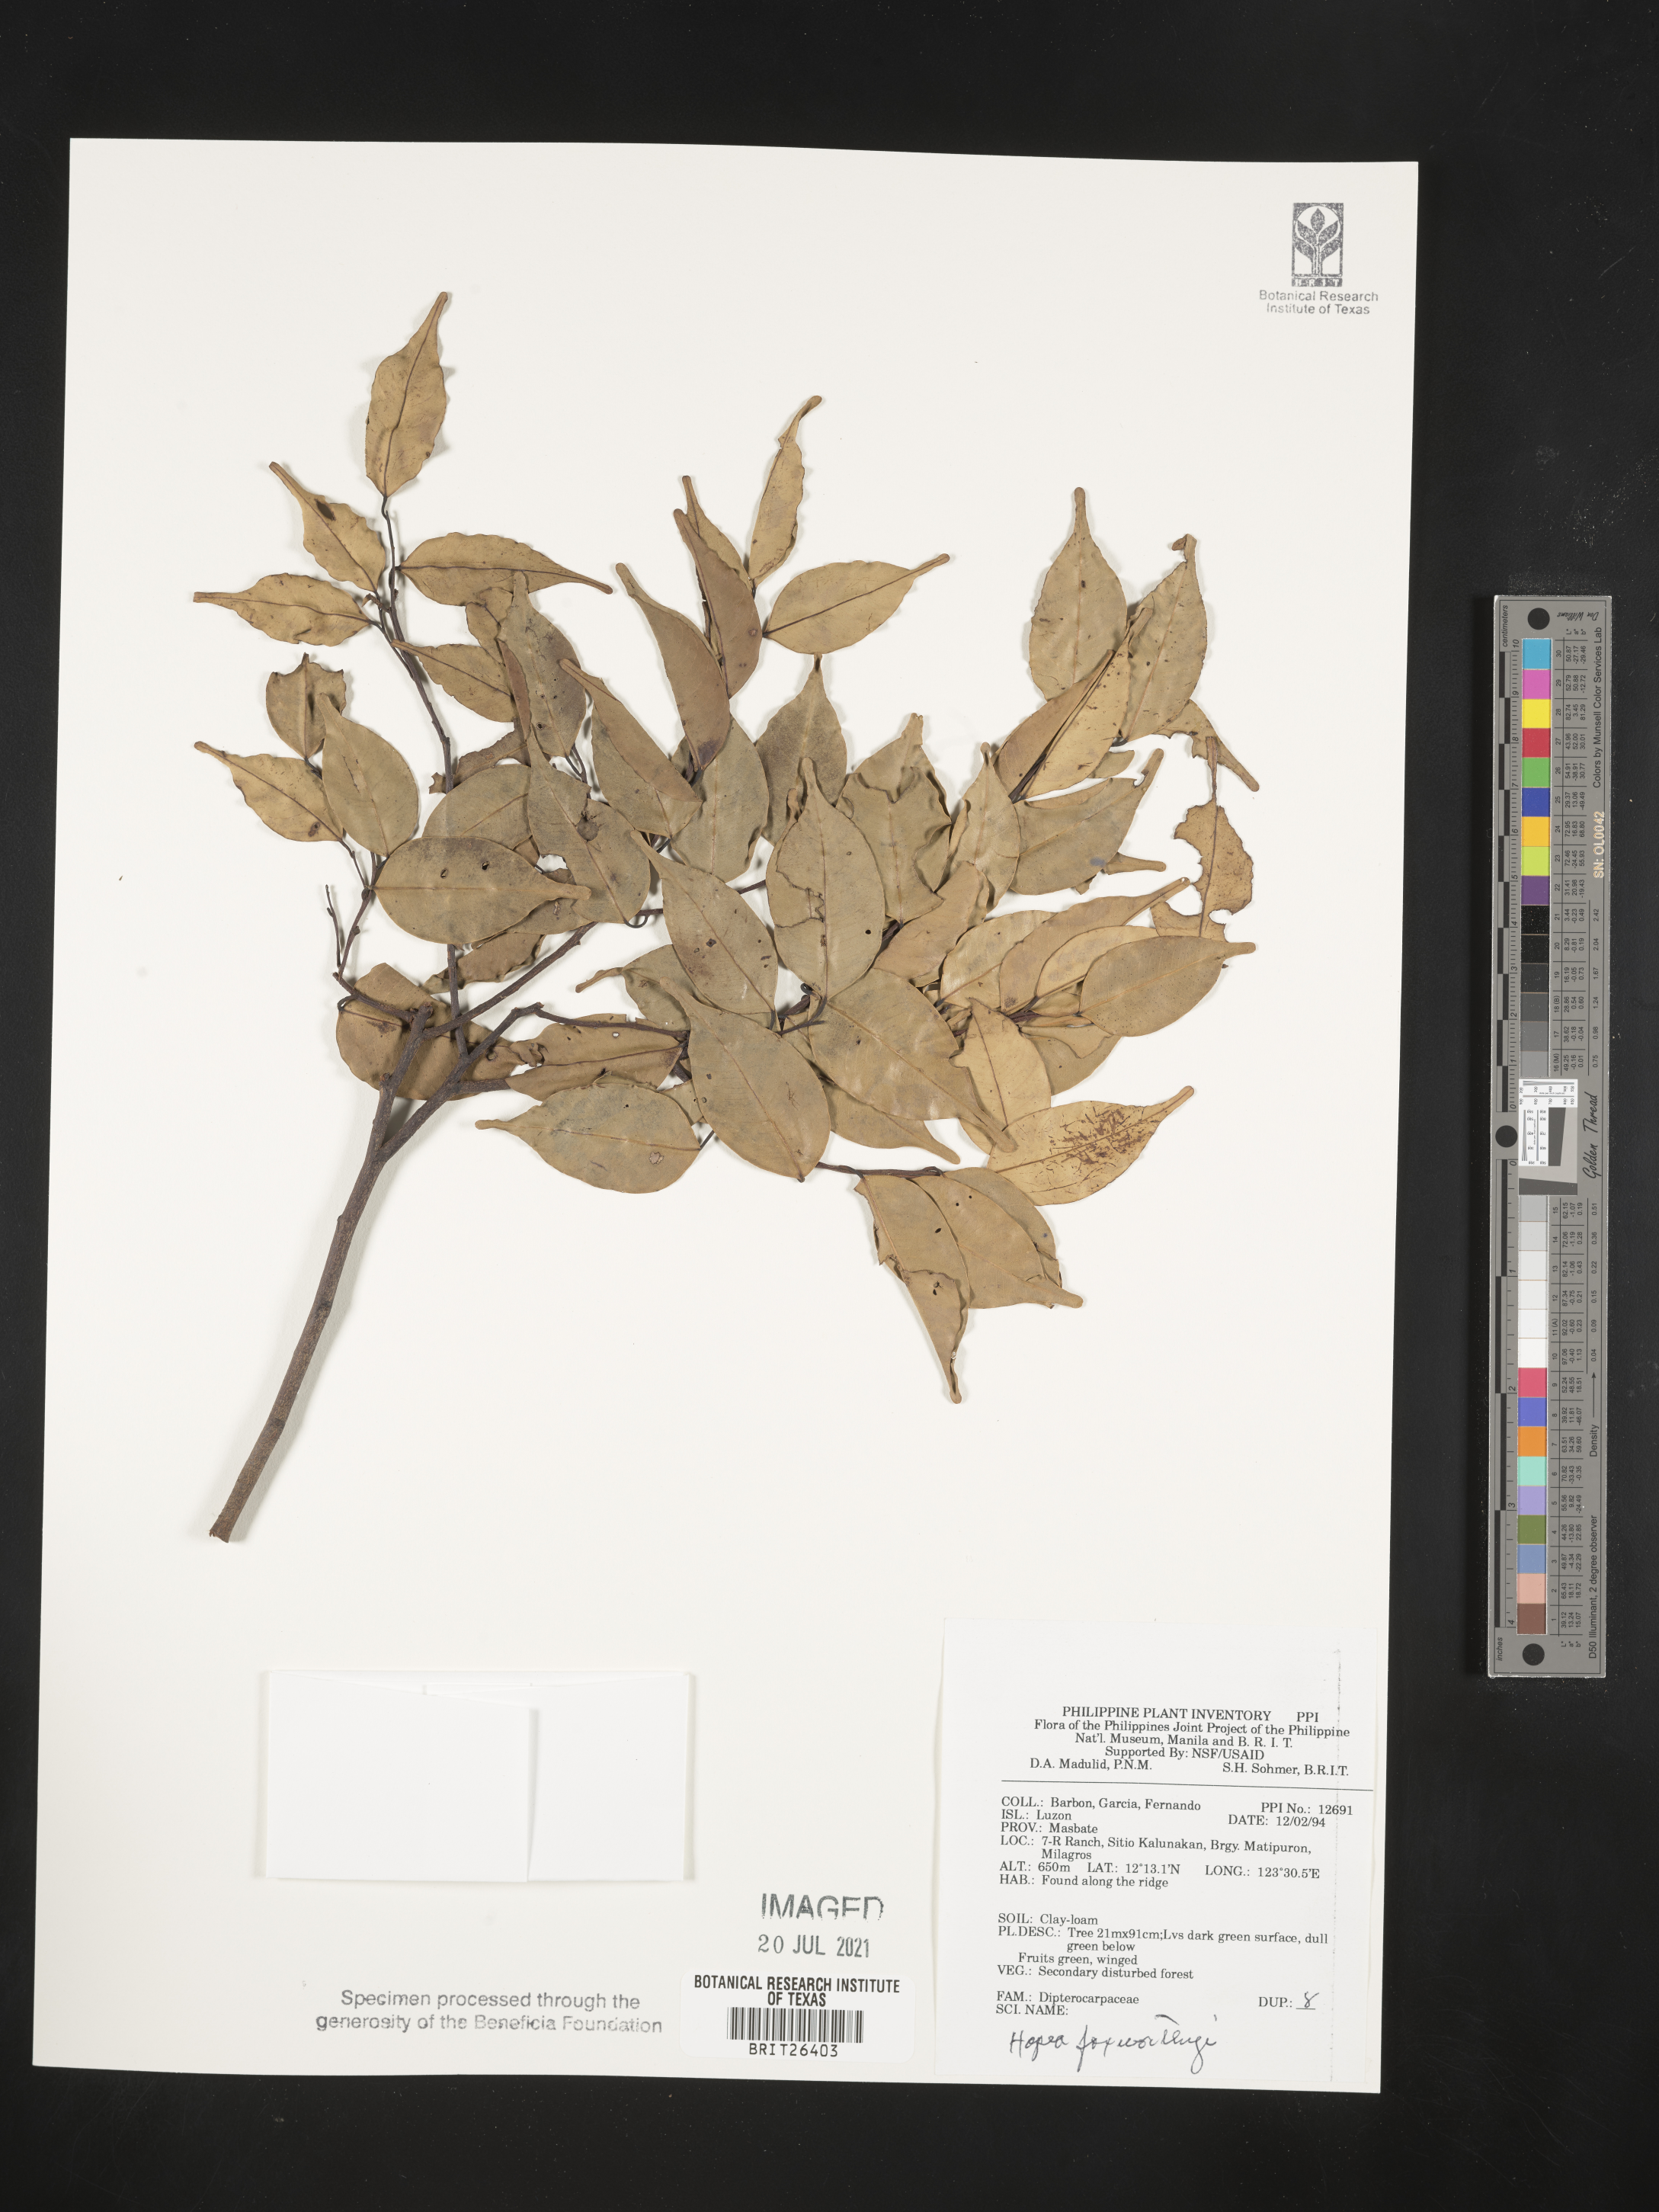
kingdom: Plantae
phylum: Tracheophyta
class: Magnoliopsida
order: Malvales
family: Dipterocarpaceae
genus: Hopea
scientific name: Hopea foxworthyi
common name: Dalingdingan
